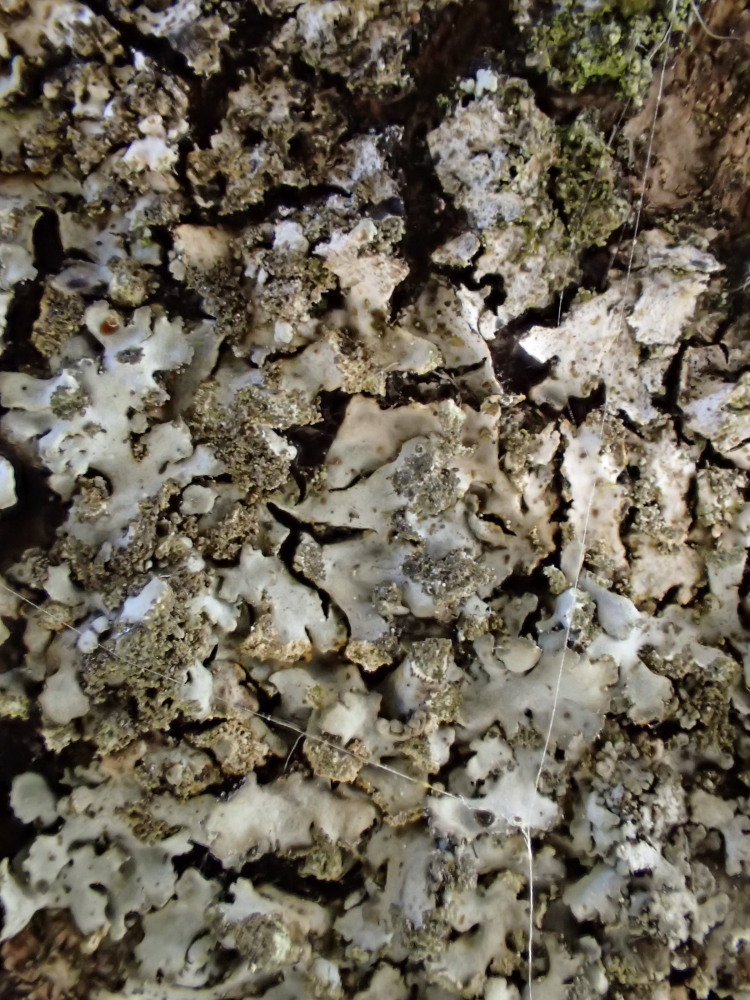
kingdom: Fungi
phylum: Ascomycota
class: Lecanoromycetes
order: Caliciales
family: Physciaceae
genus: Phaeophyscia
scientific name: Phaeophyscia orbicularis
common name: grågrøn rosetlav
